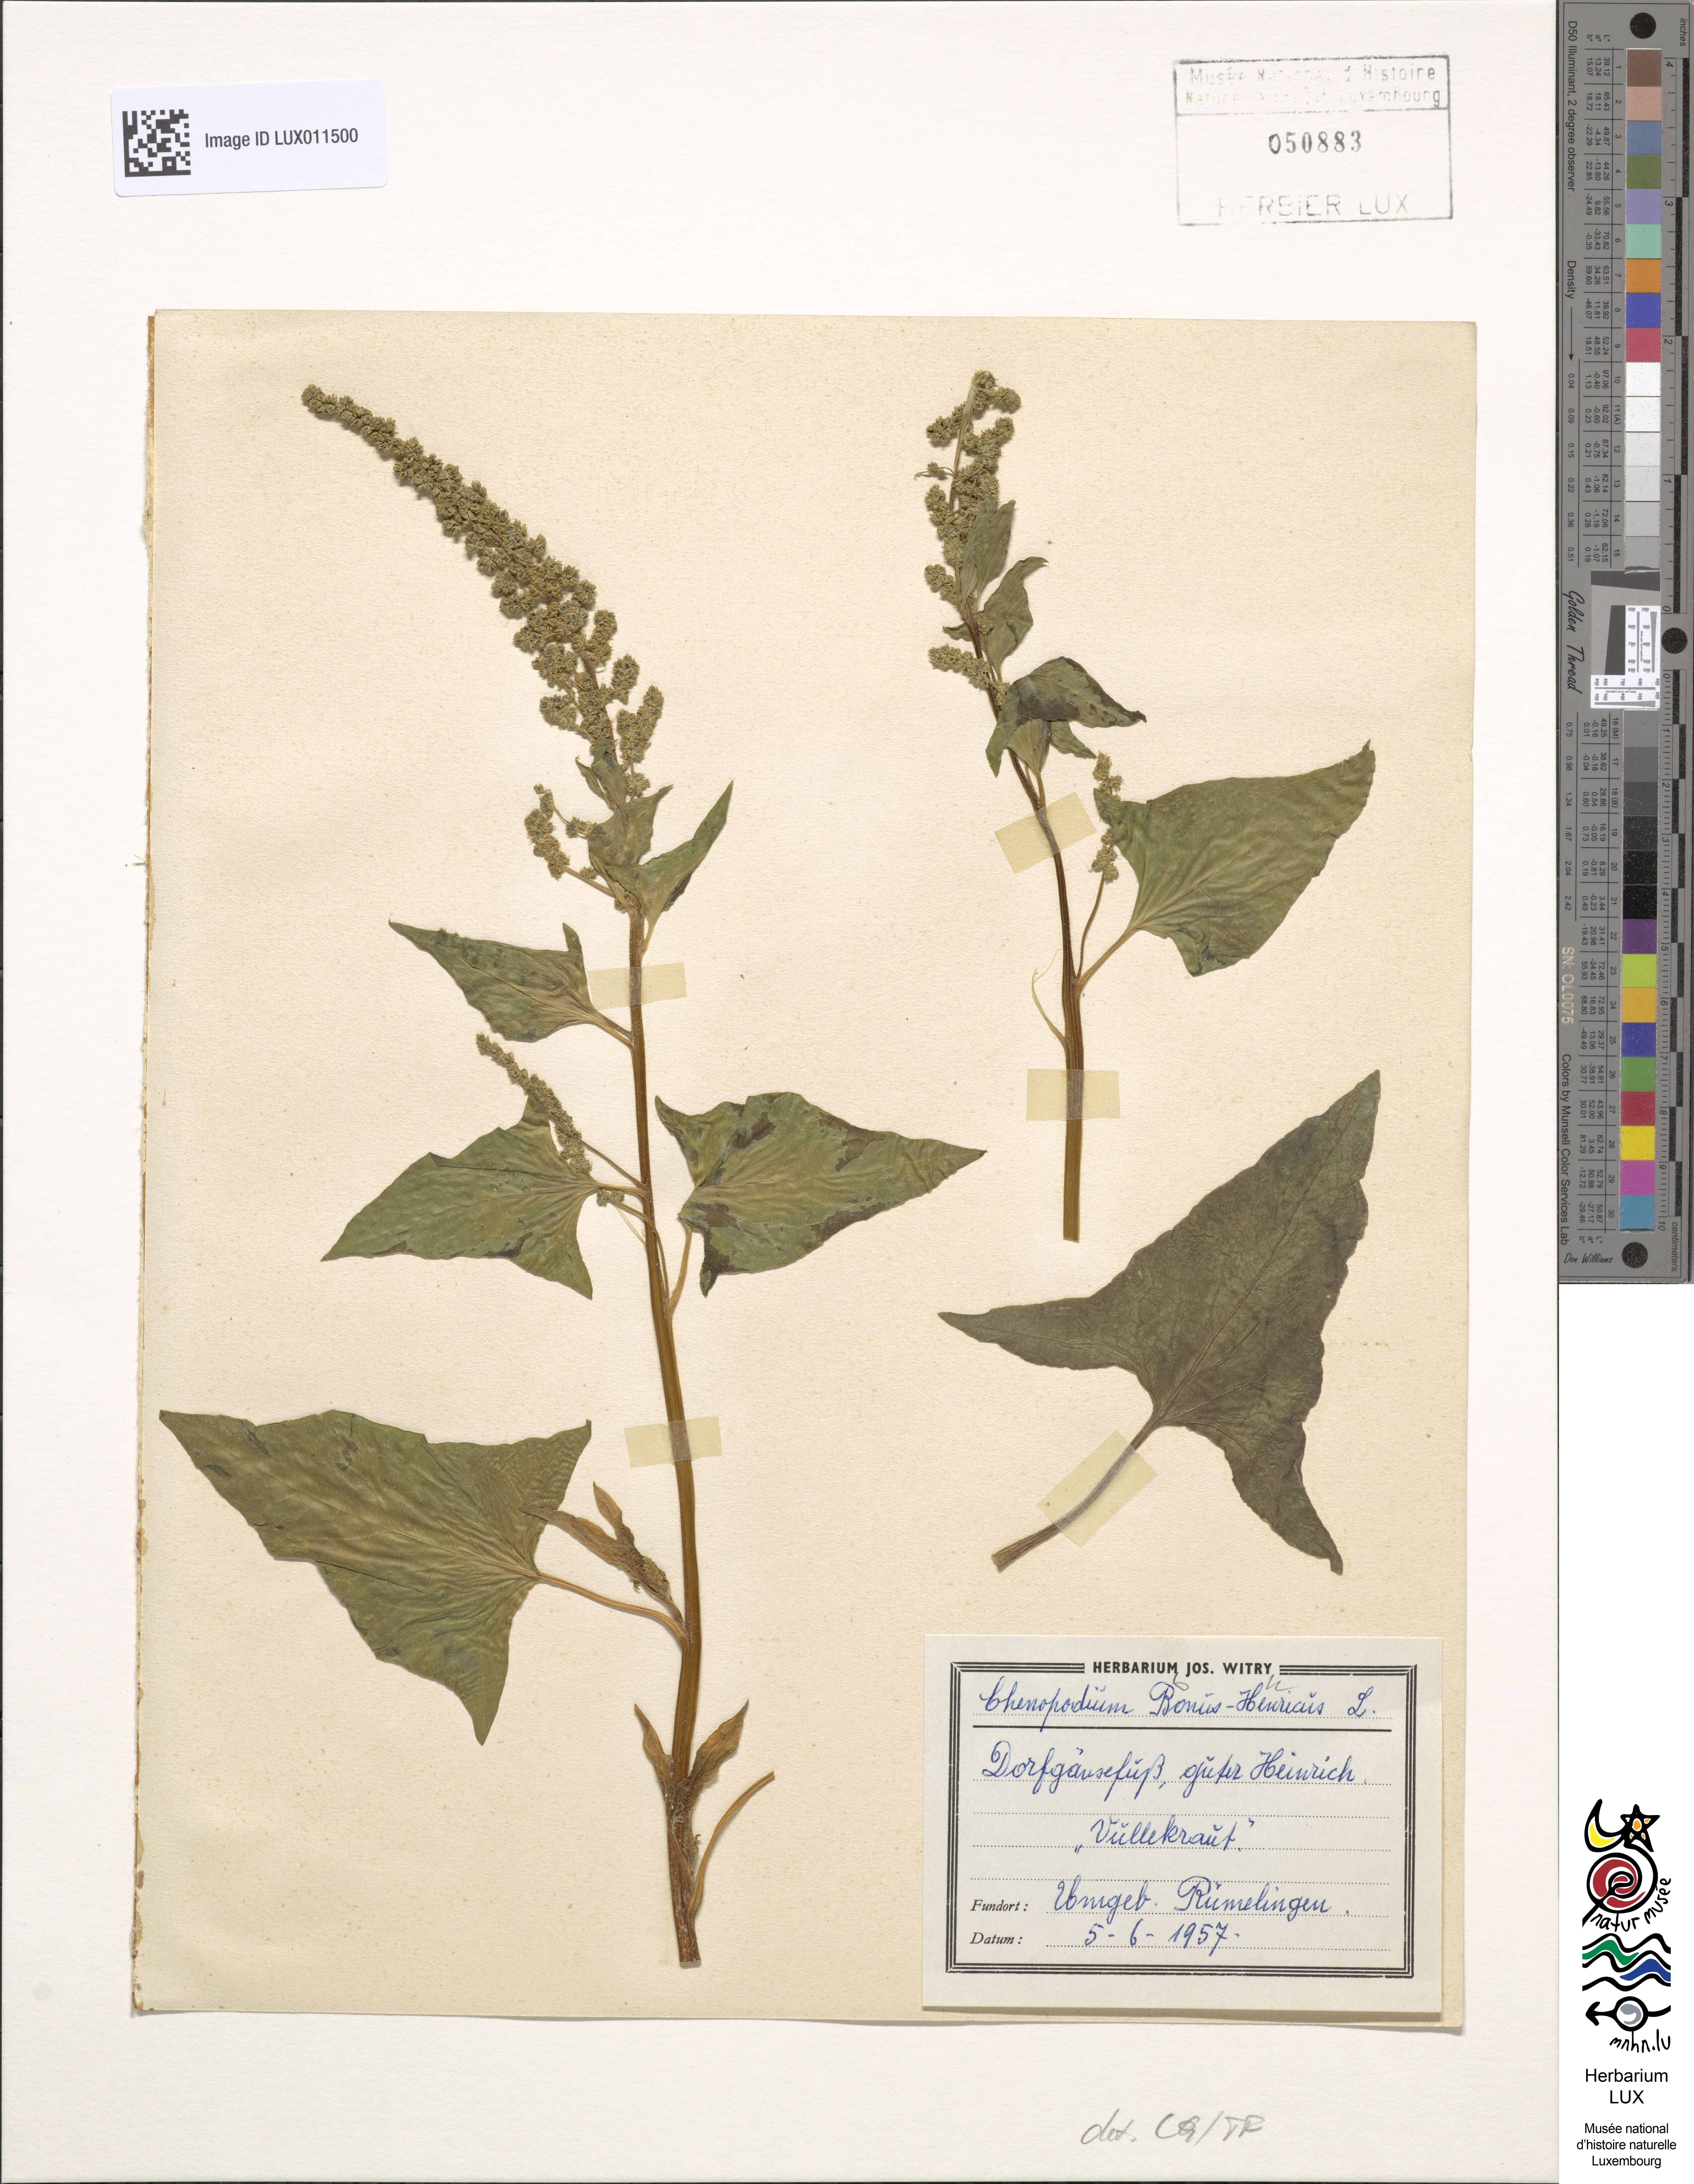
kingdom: Plantae
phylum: Tracheophyta
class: Magnoliopsida
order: Caryophyllales
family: Amaranthaceae
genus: Blitum
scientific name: Blitum bonus-henricus
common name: Good king henry
